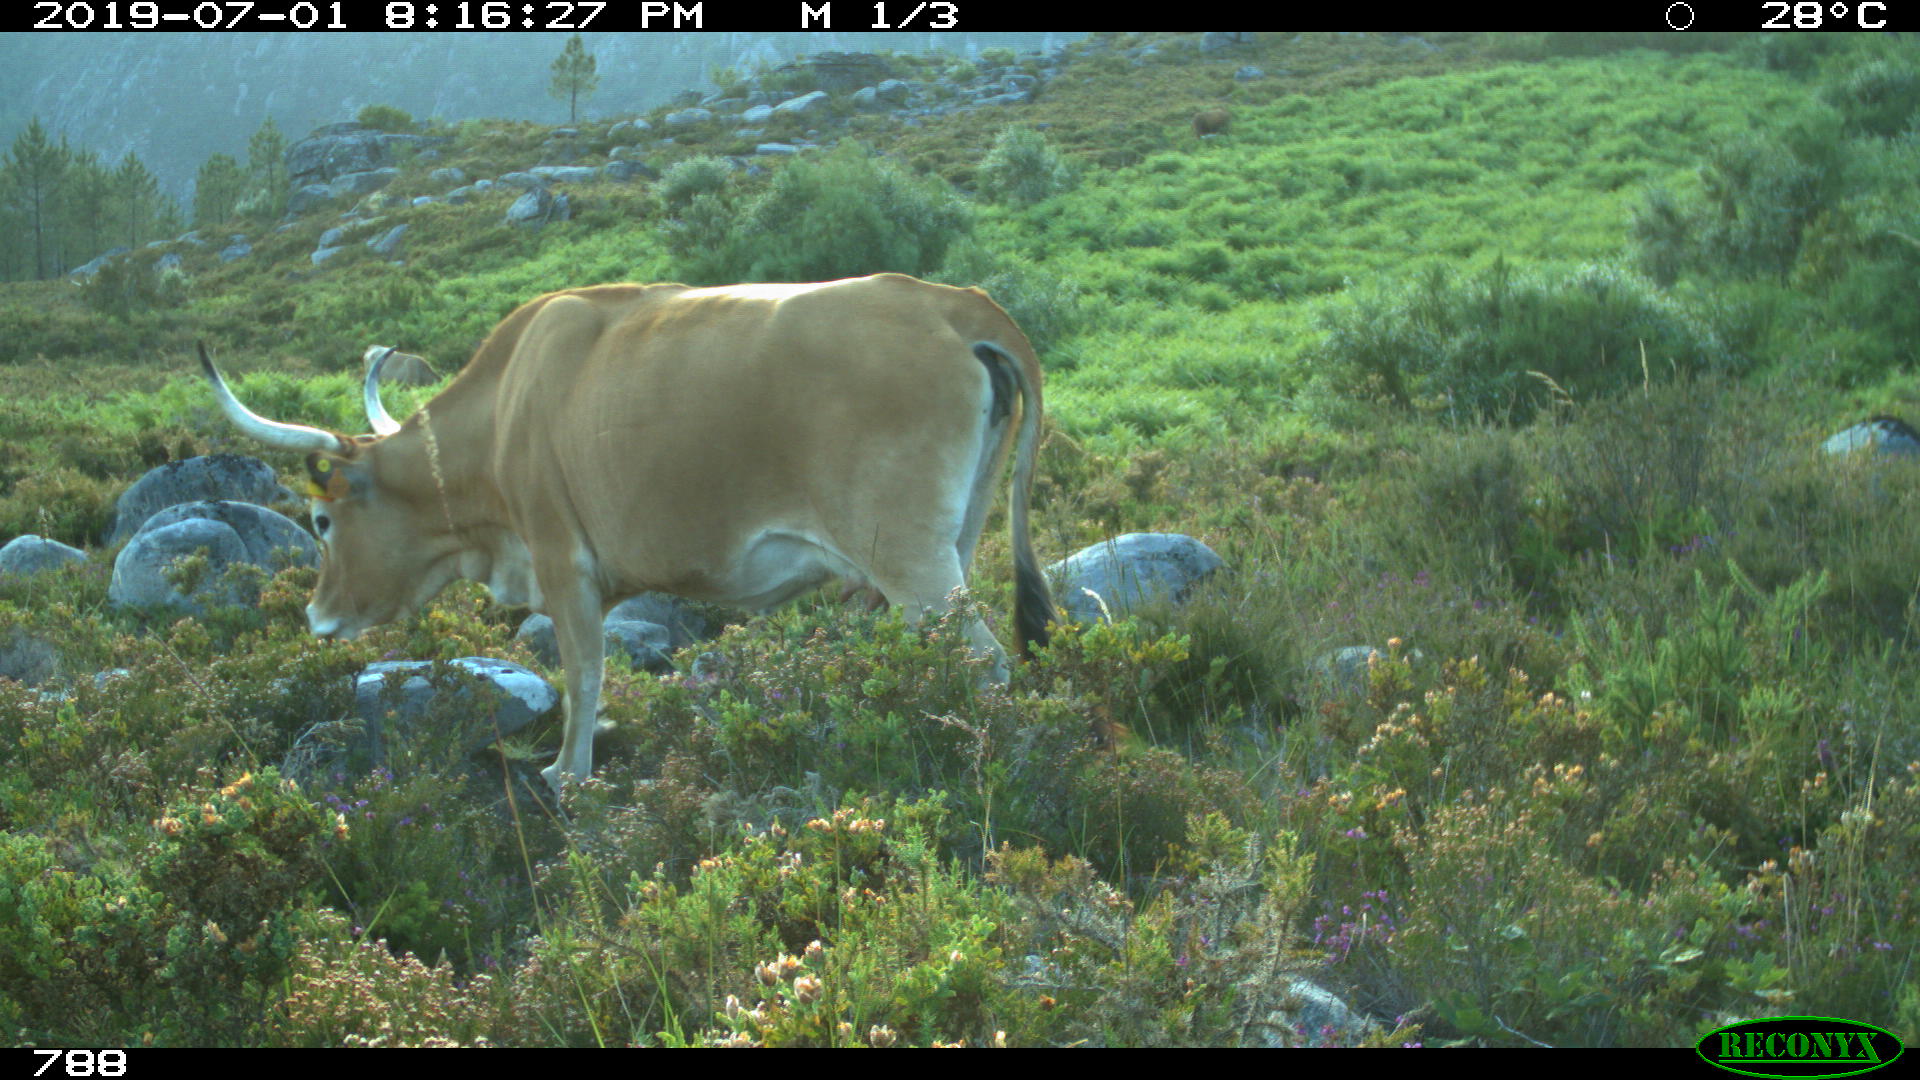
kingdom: Animalia
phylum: Chordata
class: Mammalia
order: Artiodactyla
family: Bovidae
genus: Bos
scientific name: Bos taurus
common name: Domesticated cattle
